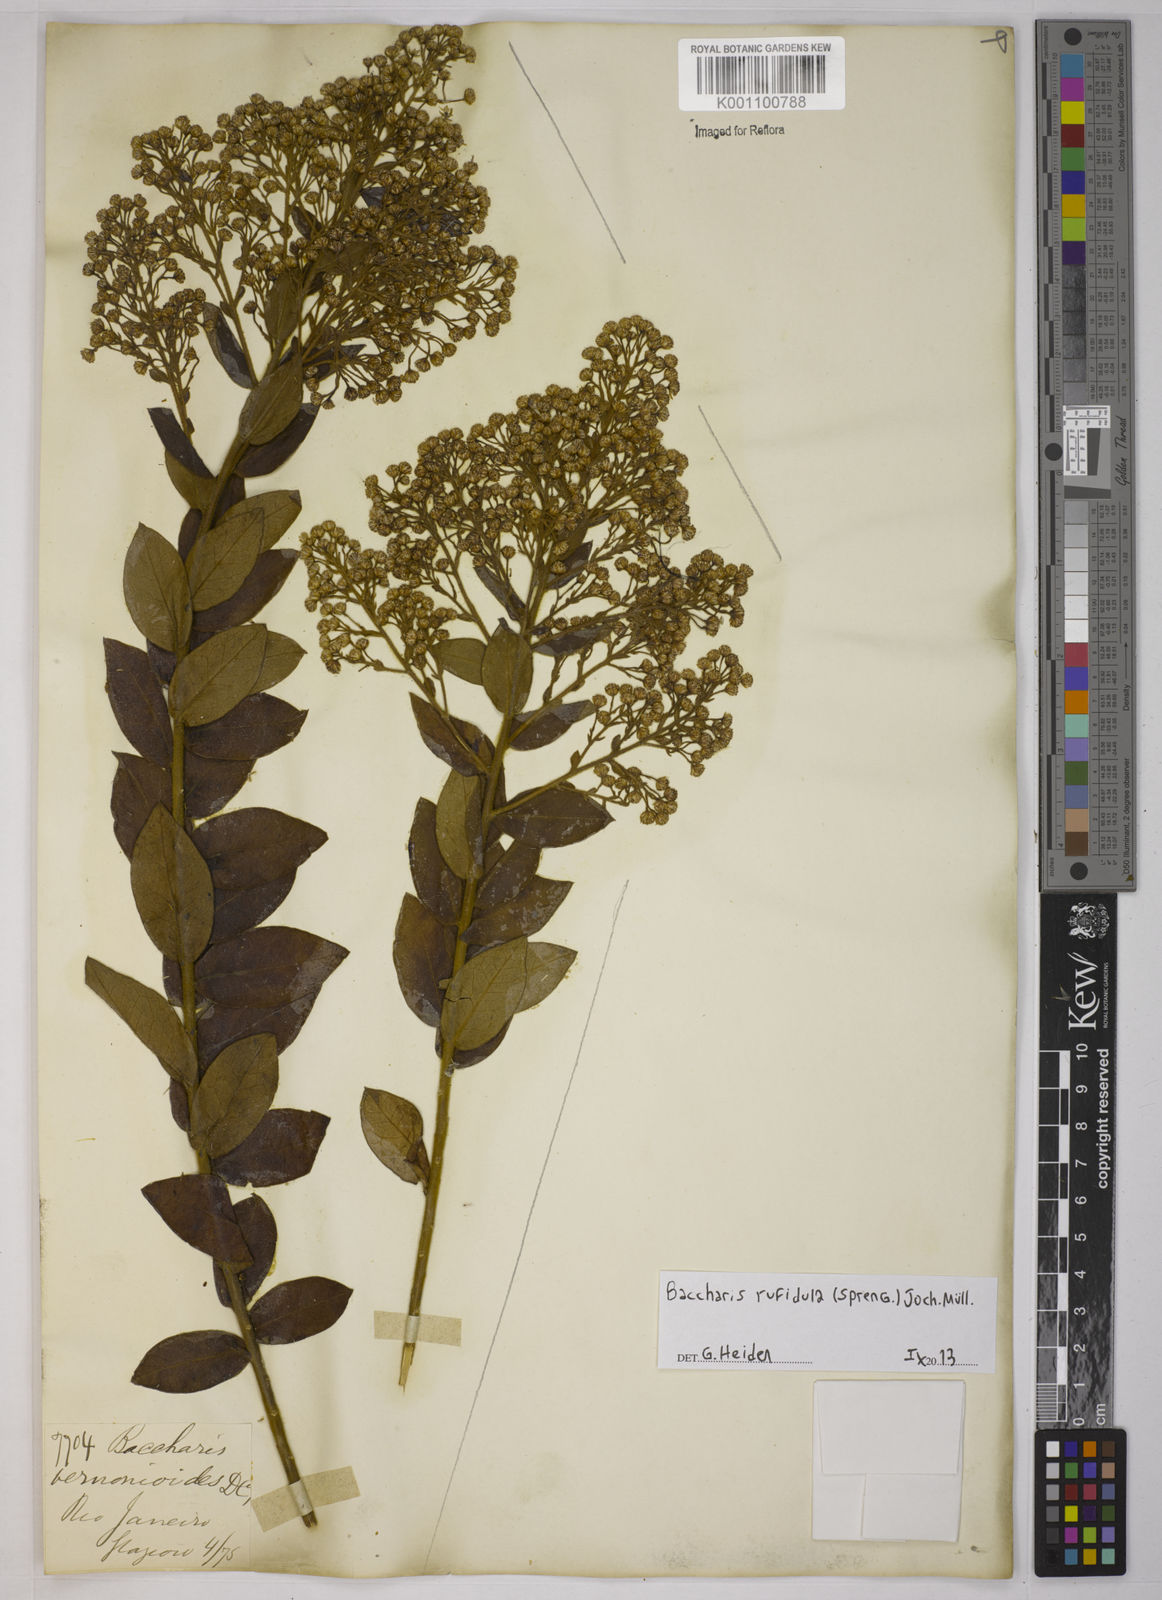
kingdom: Plantae
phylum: Tracheophyta
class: Magnoliopsida
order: Asterales
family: Asteraceae
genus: Baccharis
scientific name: Baccharis rufidula
